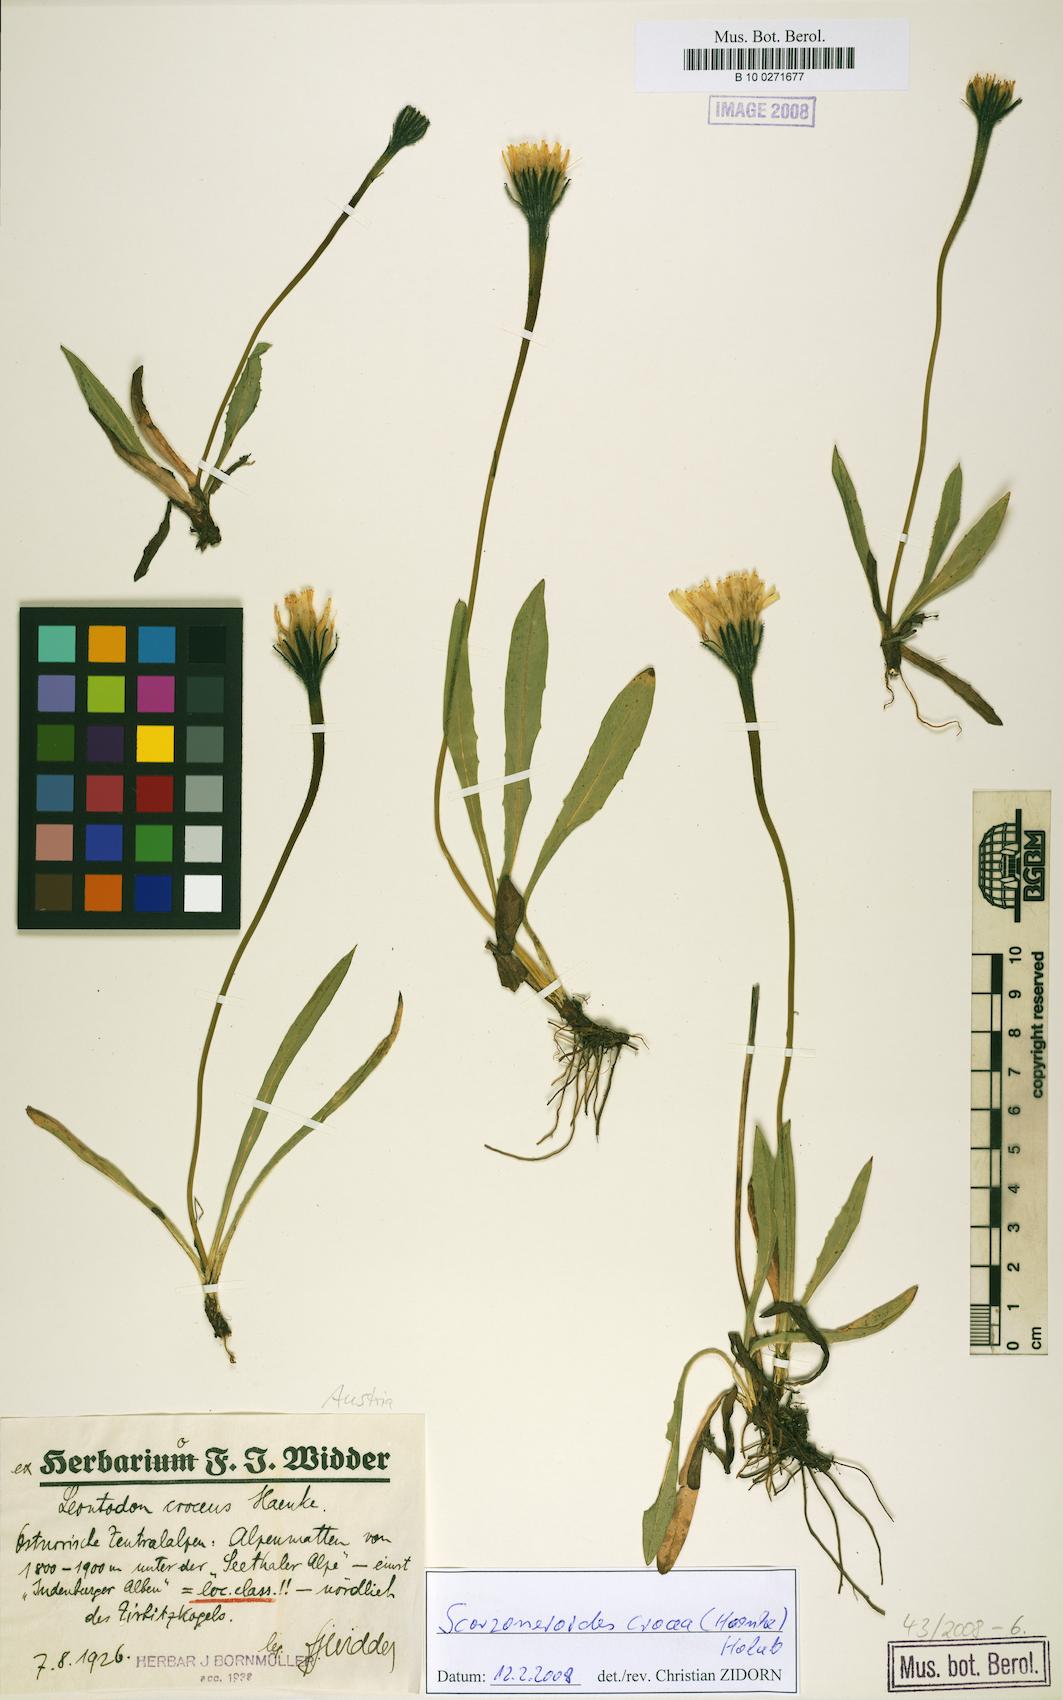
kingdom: Plantae
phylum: Tracheophyta
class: Magnoliopsida
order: Asterales
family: Asteraceae
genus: Scorzoneroides
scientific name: Scorzoneroides crocea
